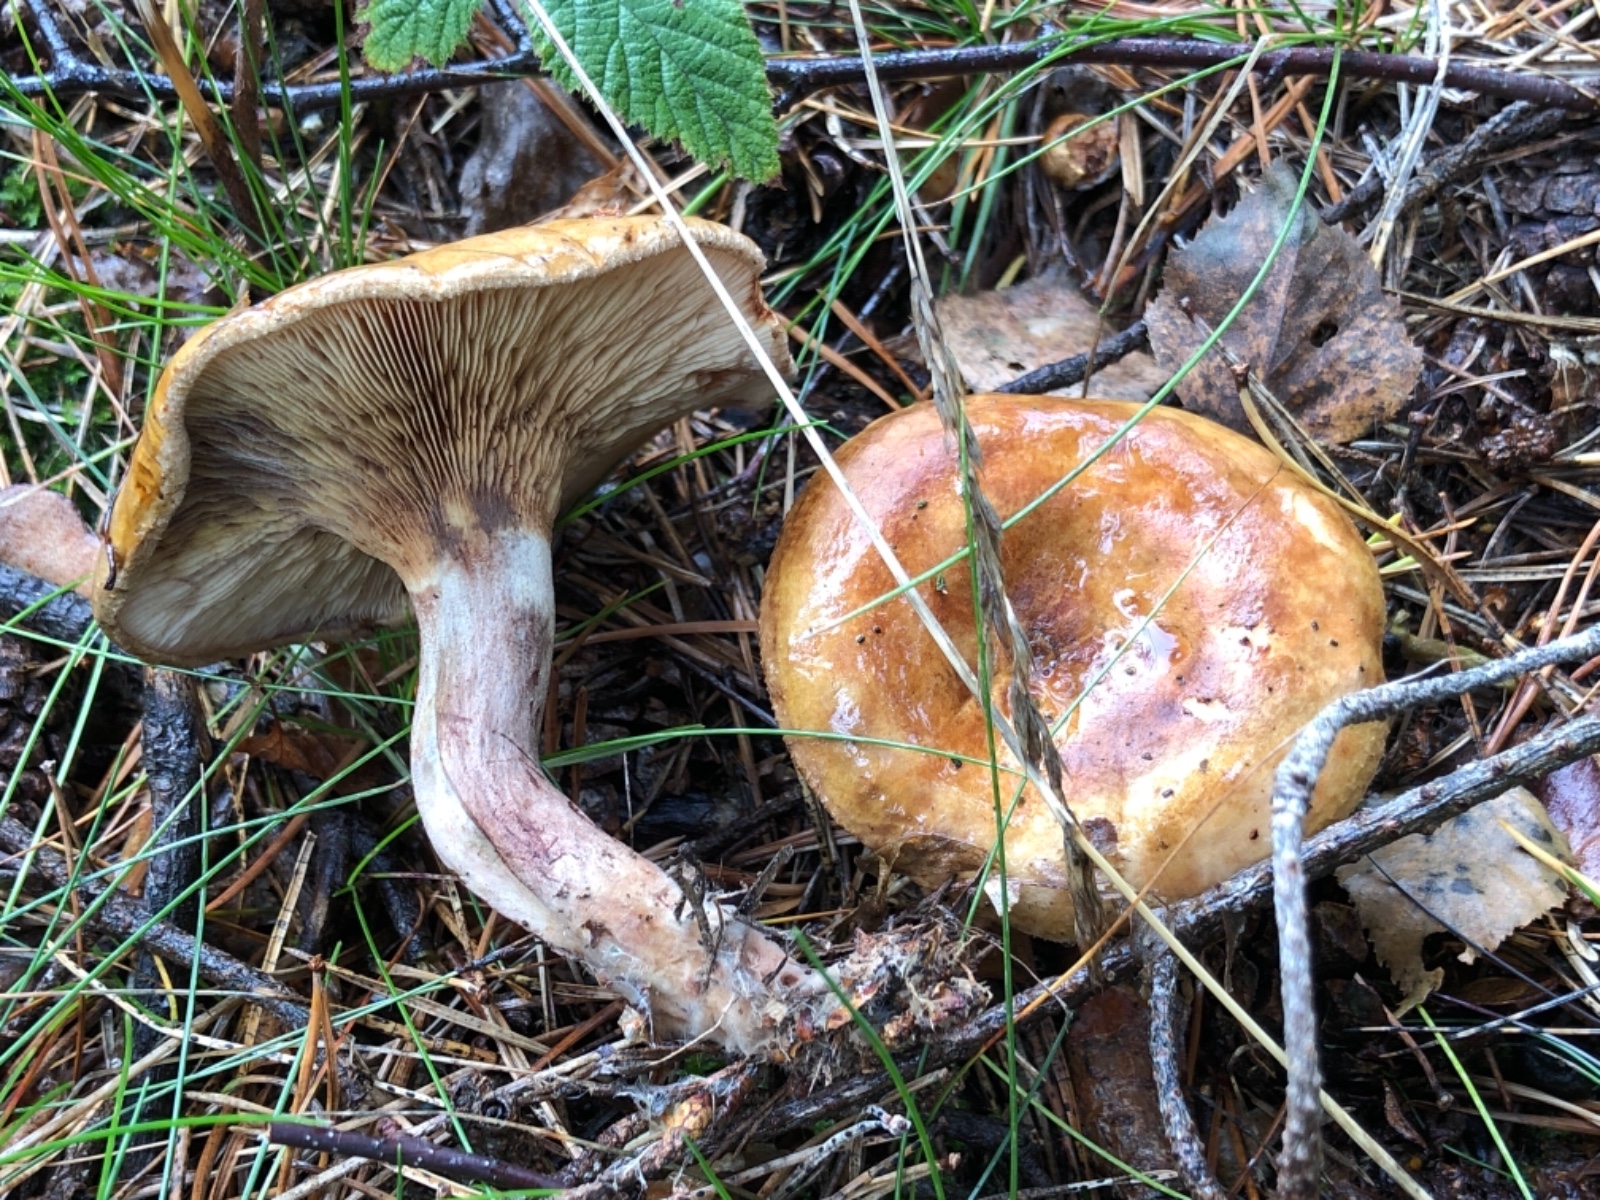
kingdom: Fungi
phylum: Basidiomycota
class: Agaricomycetes
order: Boletales
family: Paxillaceae
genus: Paxillus
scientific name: Paxillus involutus
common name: almindelig netbladhat
